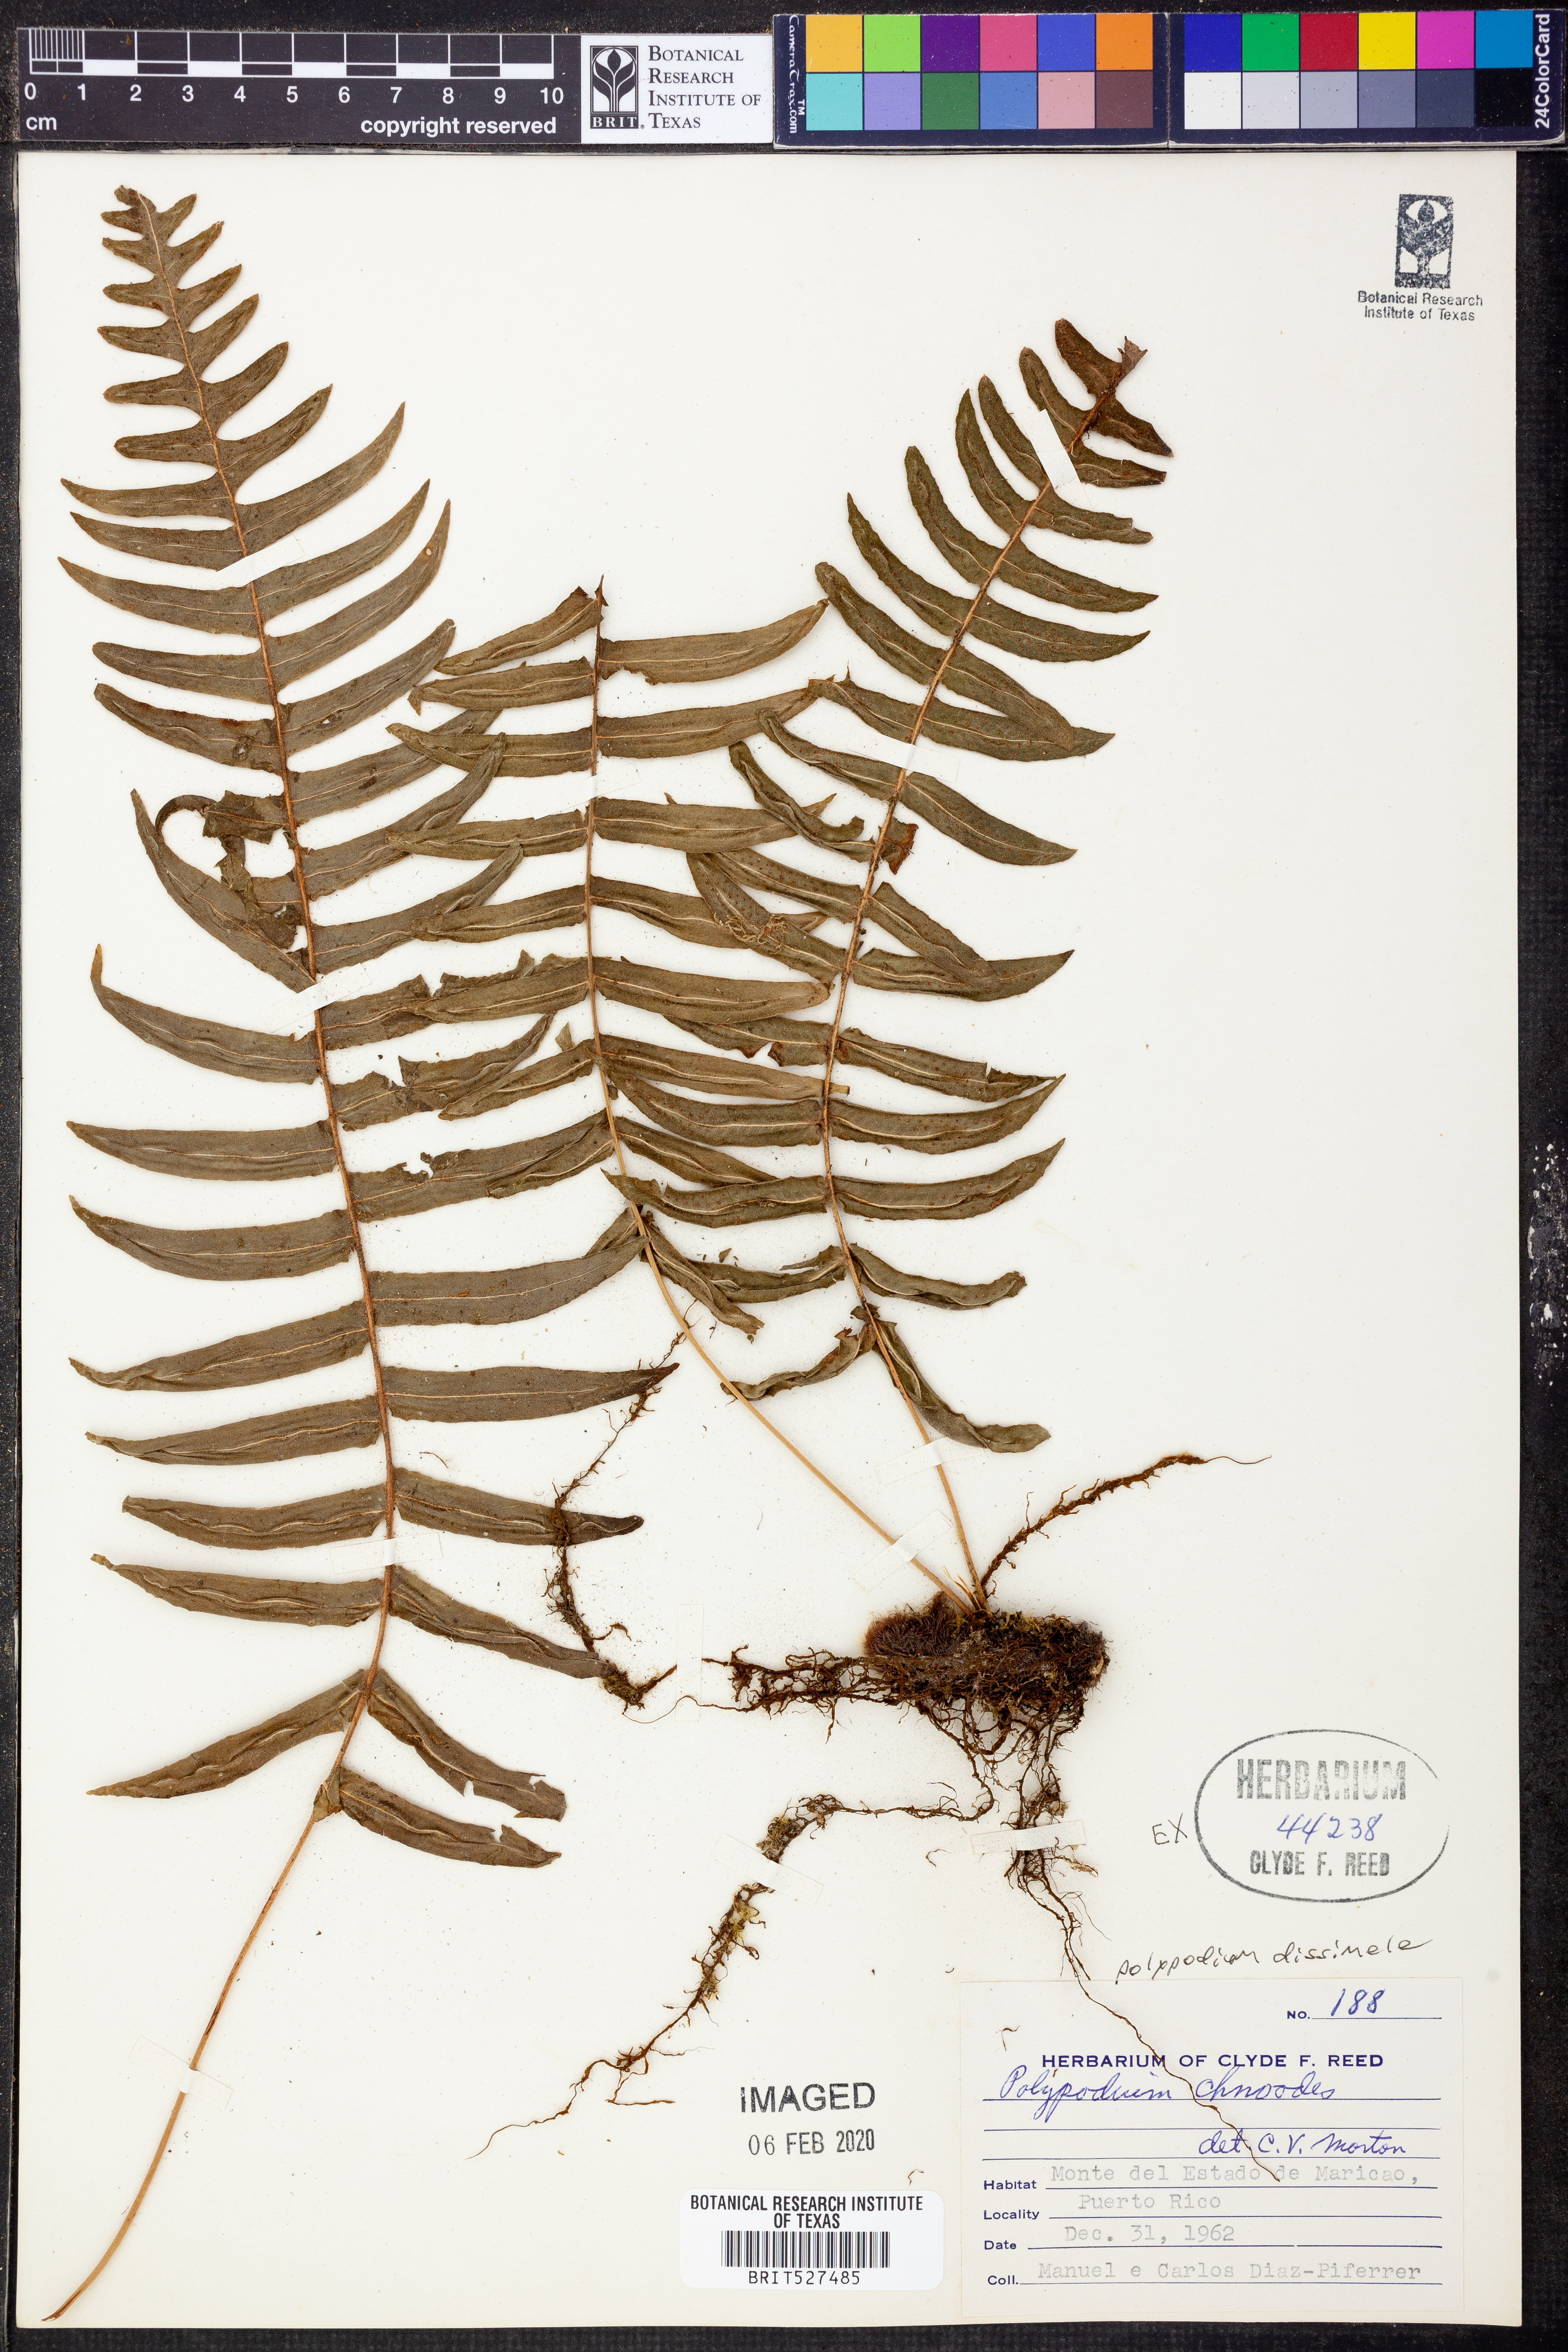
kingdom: Plantae
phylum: Tracheophyta
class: Polypodiopsida
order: Polypodiales
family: Polypodiaceae
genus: Serpocaulon
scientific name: Serpocaulon dissimile
